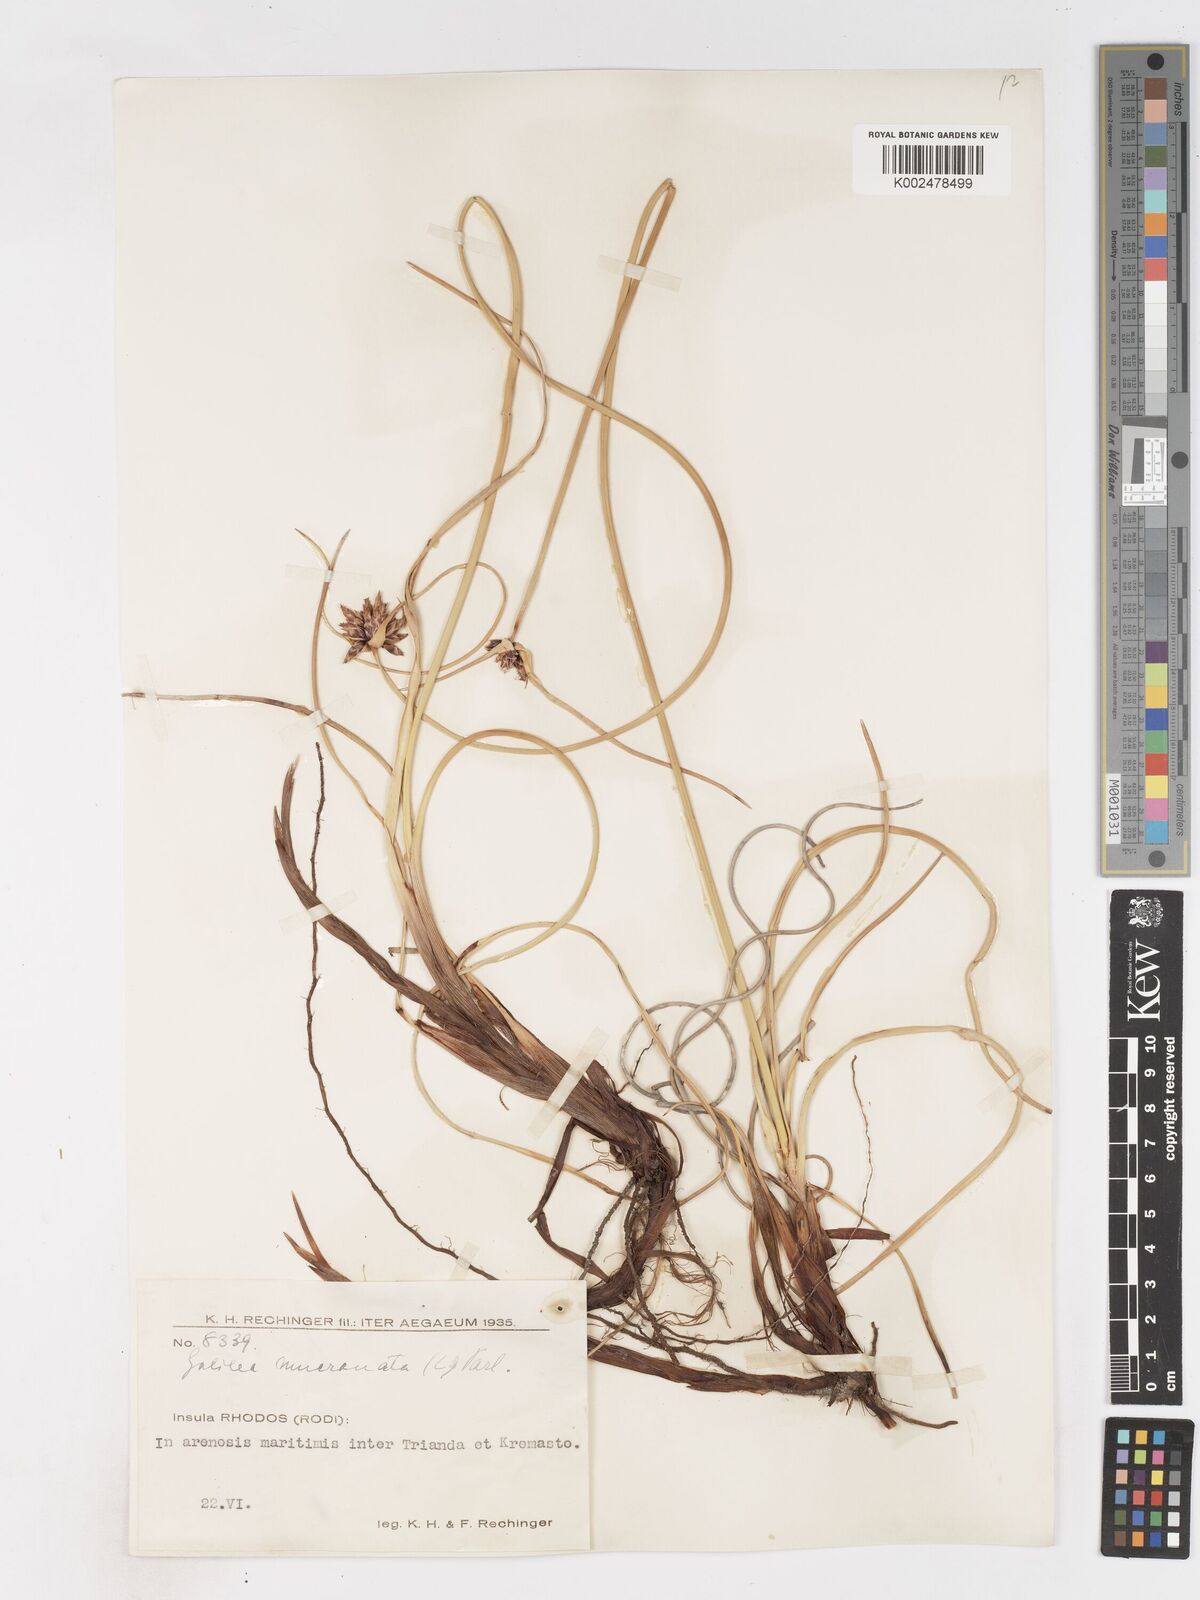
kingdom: Plantae
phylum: Tracheophyta
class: Liliopsida
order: Poales
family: Cyperaceae
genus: Cyperus
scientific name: Cyperus capitatus
